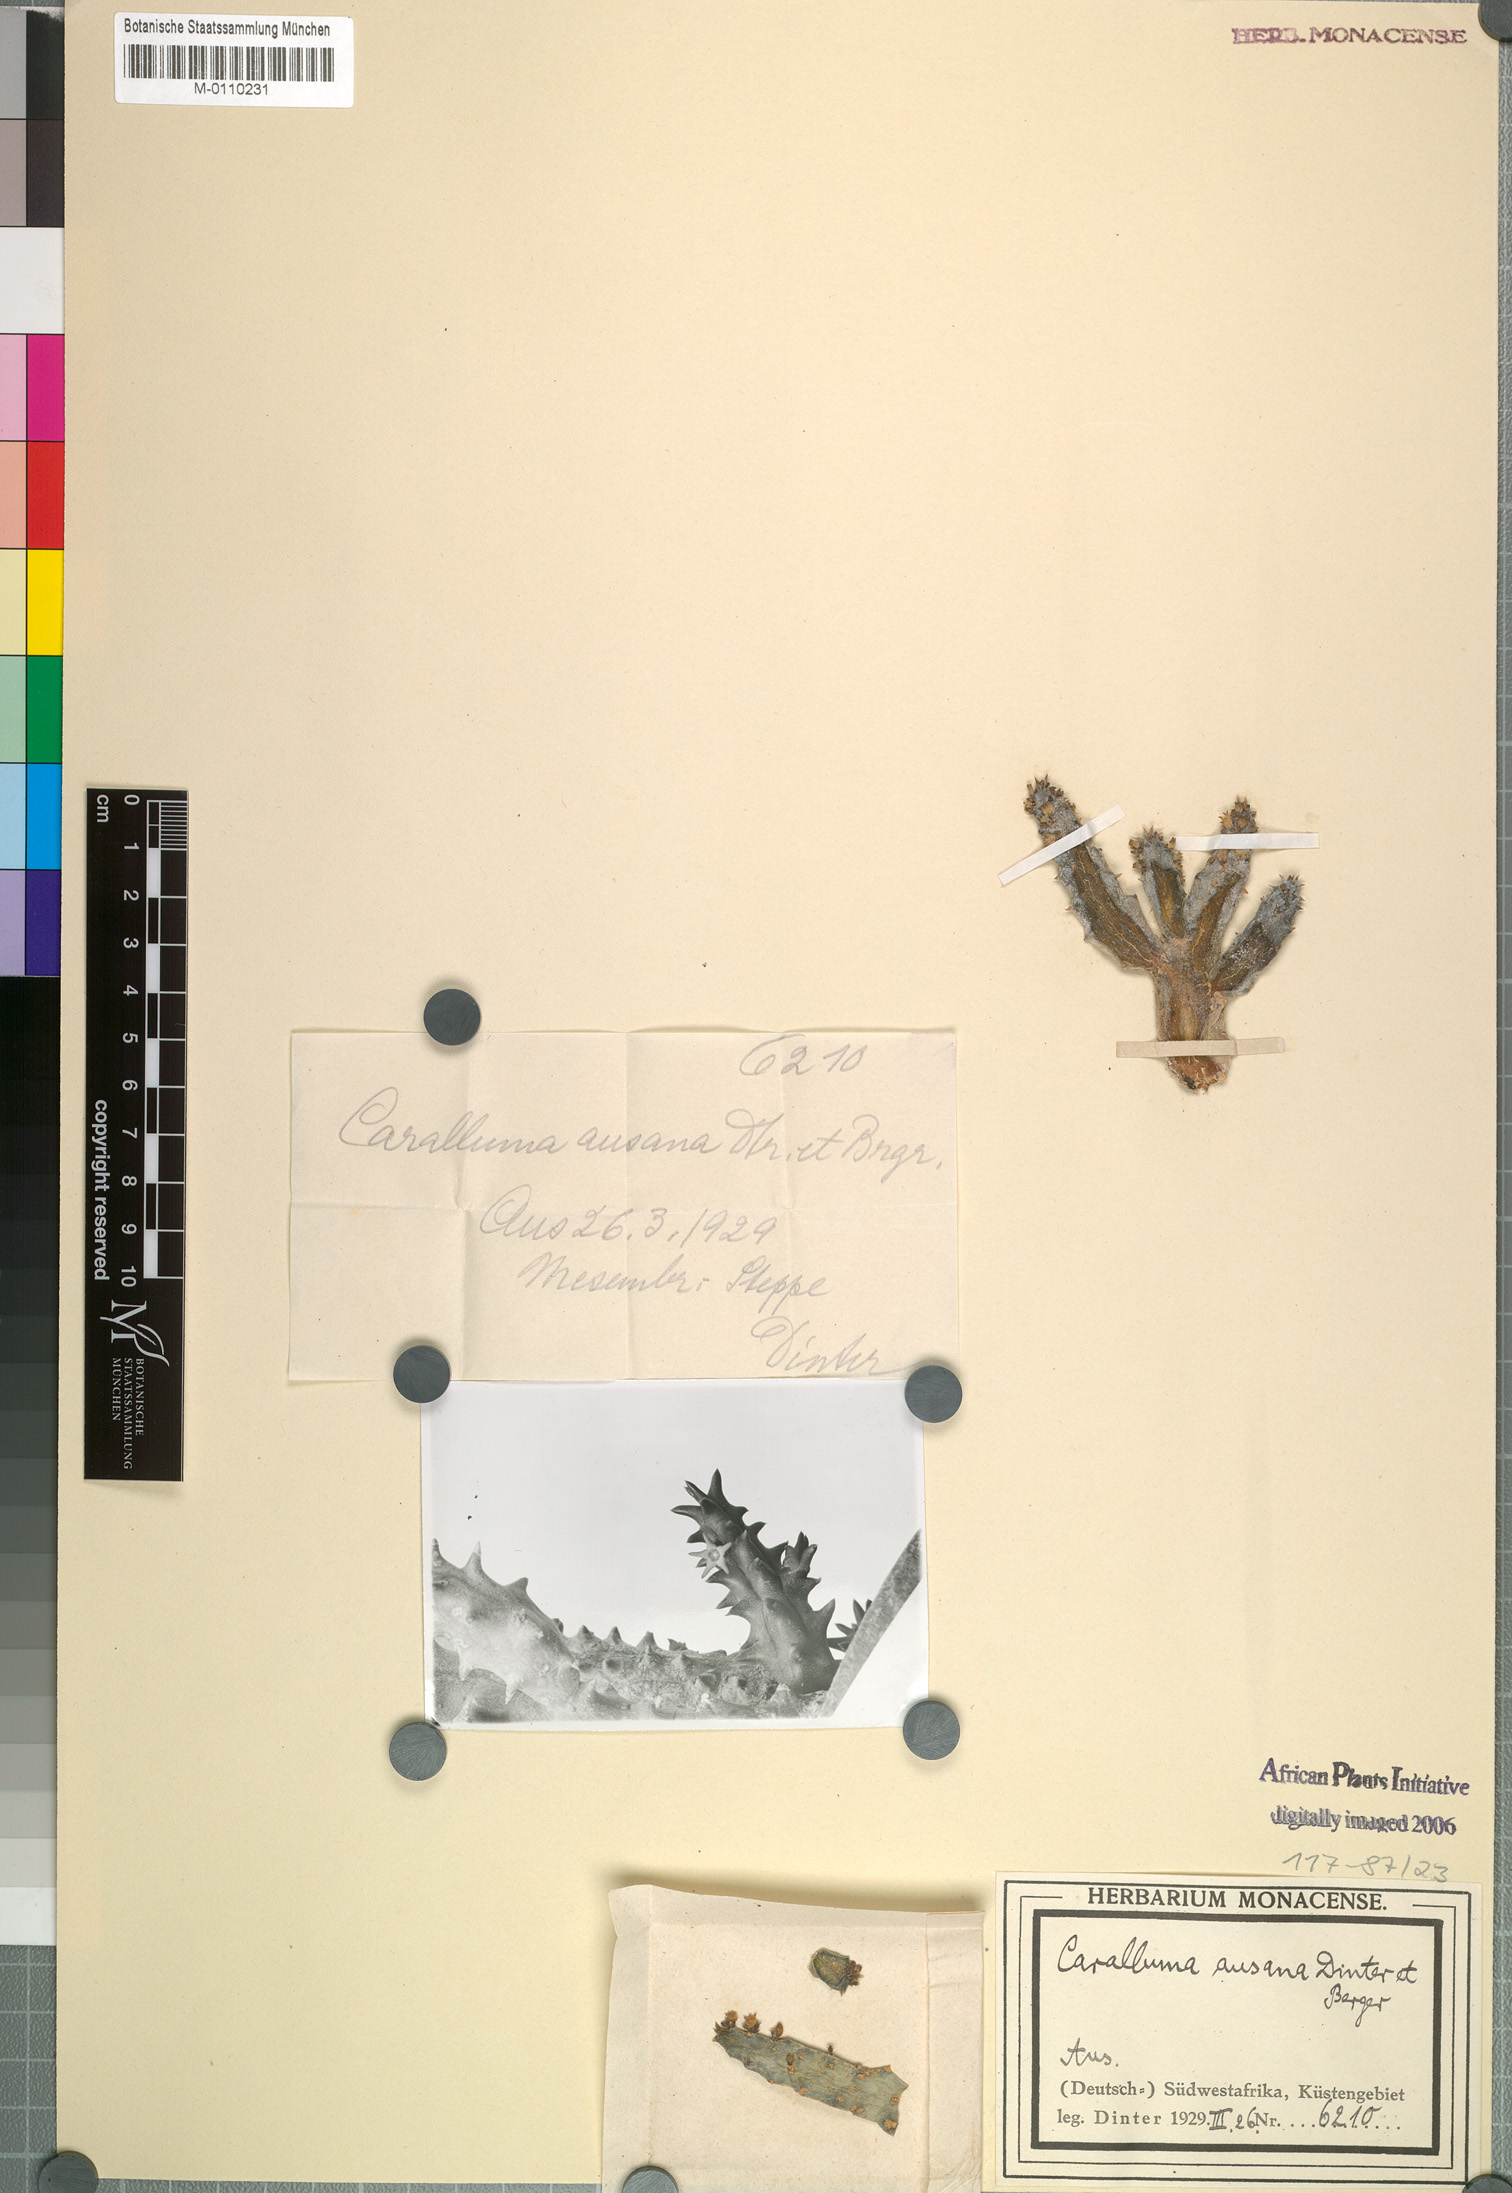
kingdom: Plantae
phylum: Tracheophyta
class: Magnoliopsida
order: Gentianales
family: Apocynaceae
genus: Ceropegia
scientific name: Ceropegia incarnata
